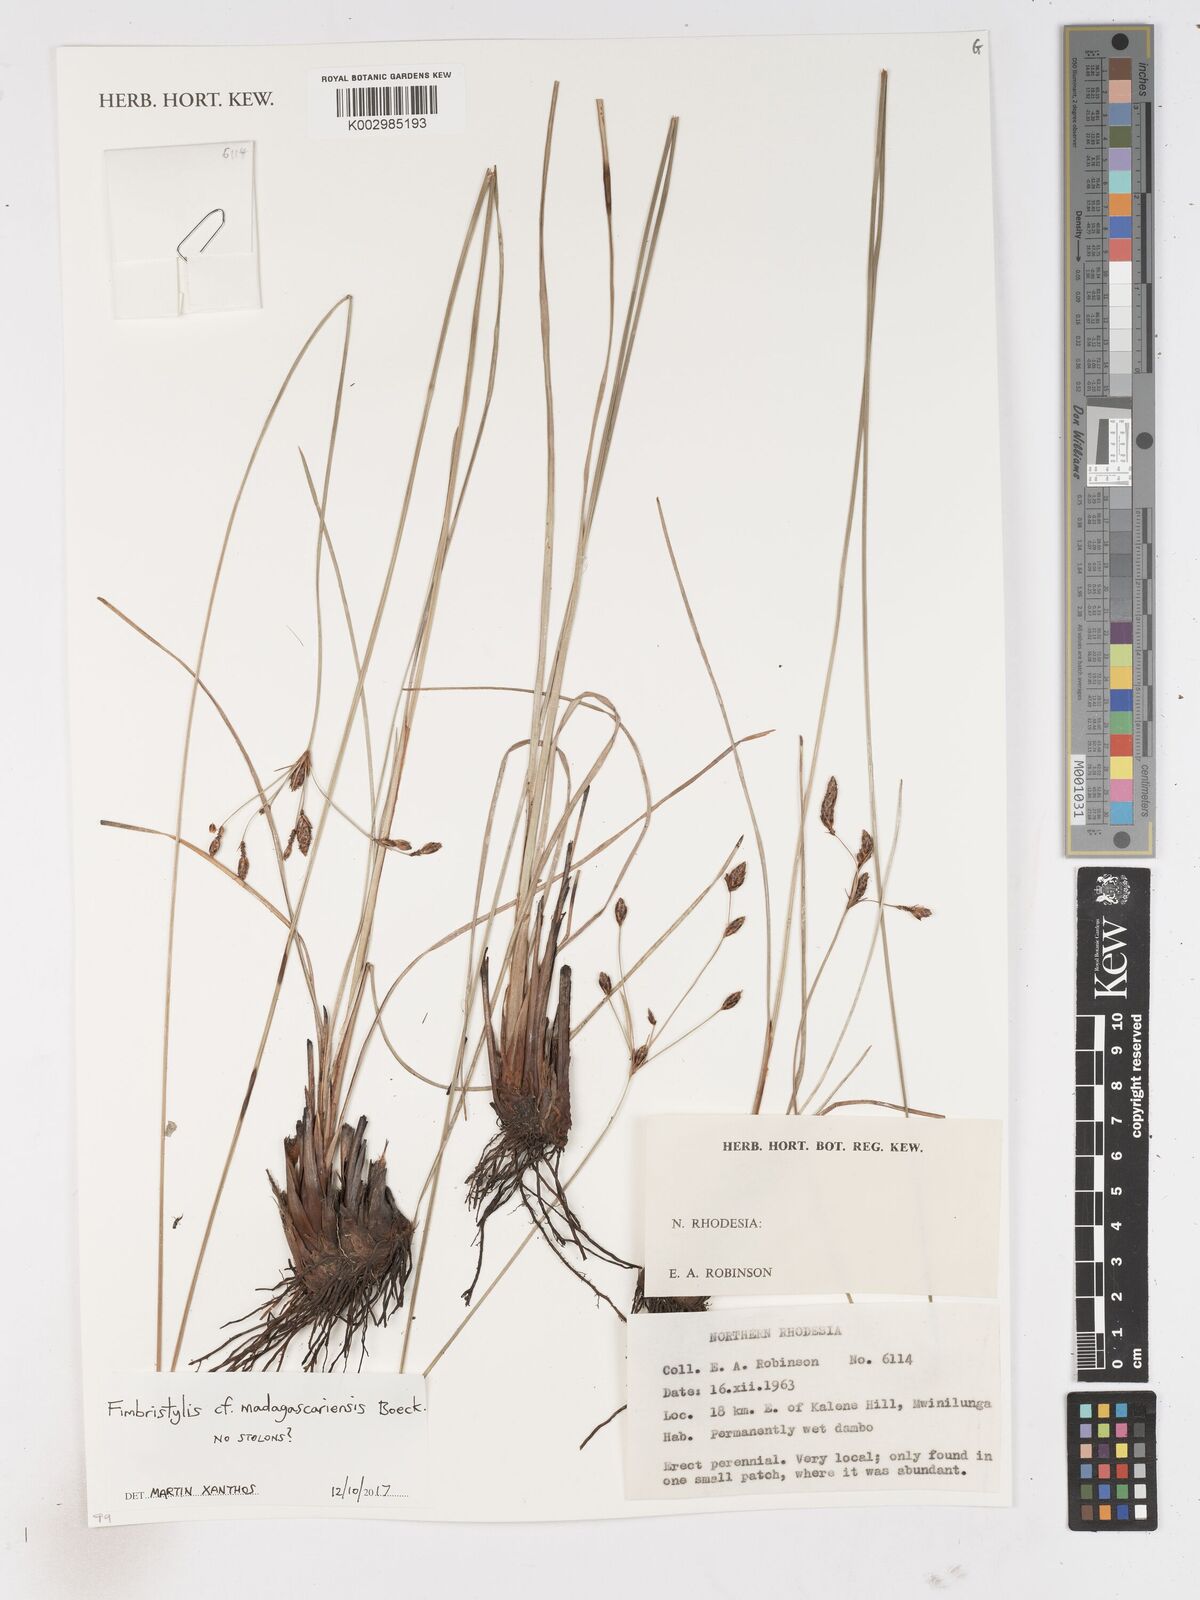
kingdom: Plantae
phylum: Tracheophyta
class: Liliopsida
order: Poales
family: Cyperaceae
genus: Fimbristylis
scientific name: Fimbristylis madagascariensis
